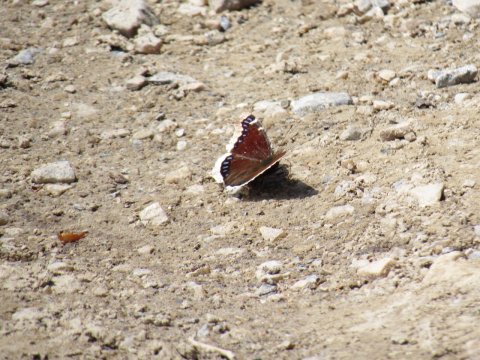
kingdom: Animalia
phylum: Arthropoda
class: Insecta
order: Lepidoptera
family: Nymphalidae
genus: Nymphalis
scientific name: Nymphalis antiopa
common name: Mourning Cloak
